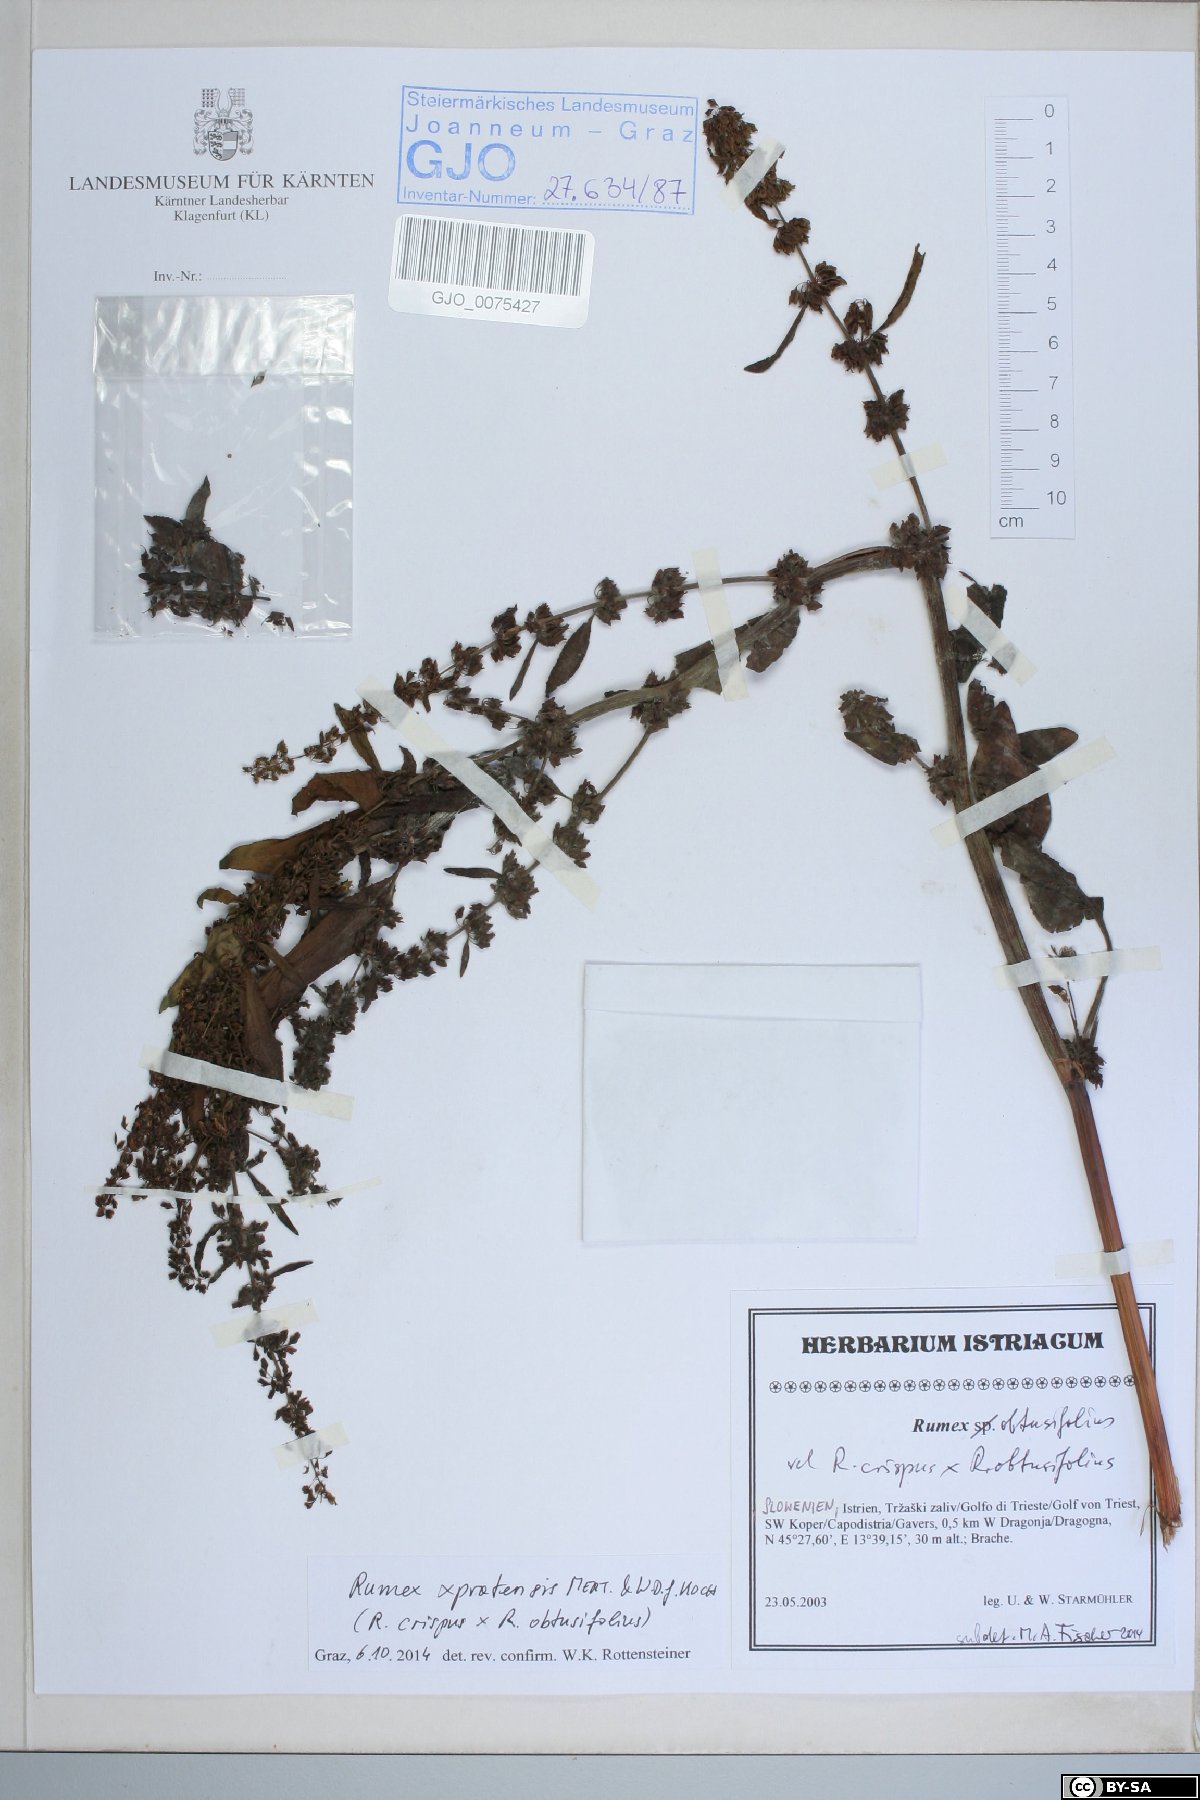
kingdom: Plantae
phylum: Tracheophyta
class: Magnoliopsida
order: Caryophyllales
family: Polygonaceae
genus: Rumex
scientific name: Rumex crispus
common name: Curled dock
